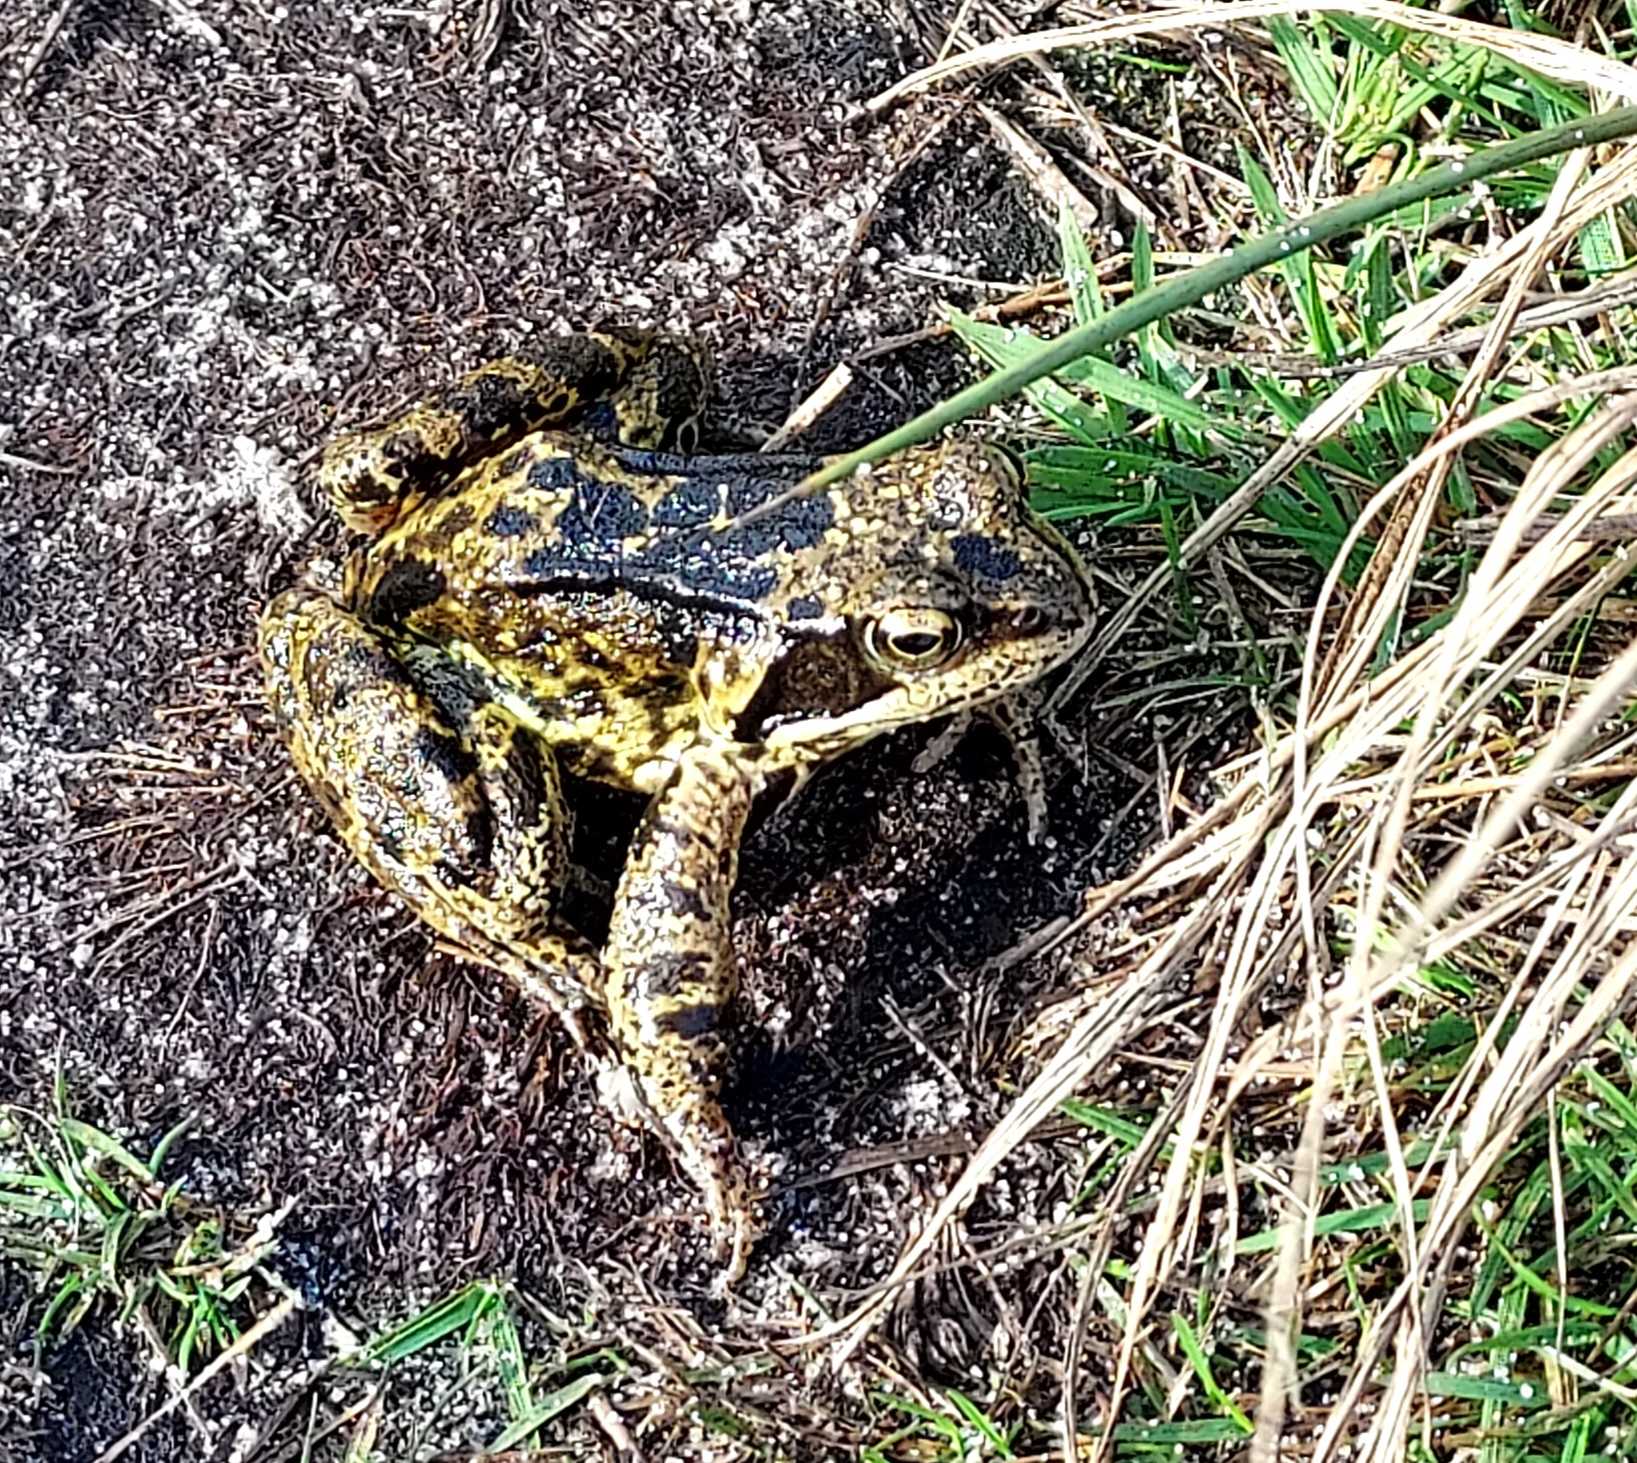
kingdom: Animalia
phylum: Chordata
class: Amphibia
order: Anura
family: Ranidae
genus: Rana
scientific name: Rana temporaria
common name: Butsnudet frø
